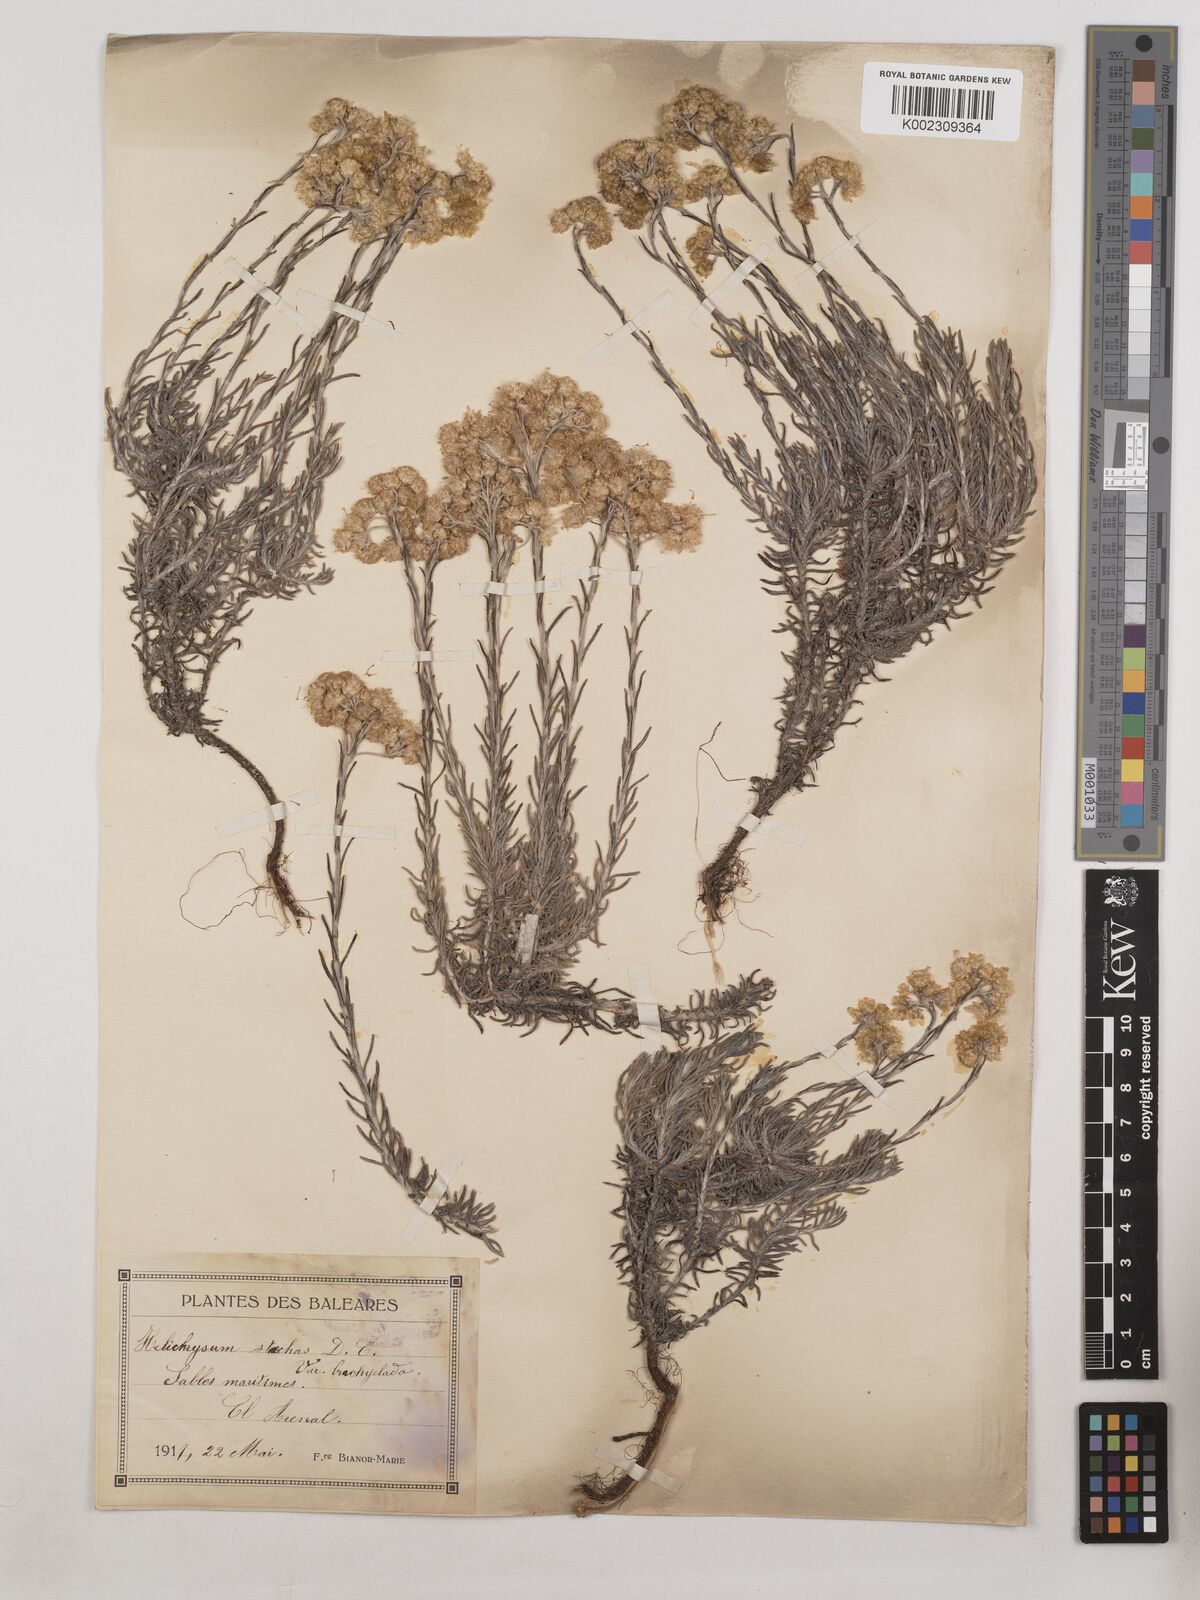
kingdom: Plantae
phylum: Tracheophyta
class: Magnoliopsida
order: Asterales
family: Asteraceae
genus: Helichrysum
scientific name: Helichrysum stoechas
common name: Goldilocks
